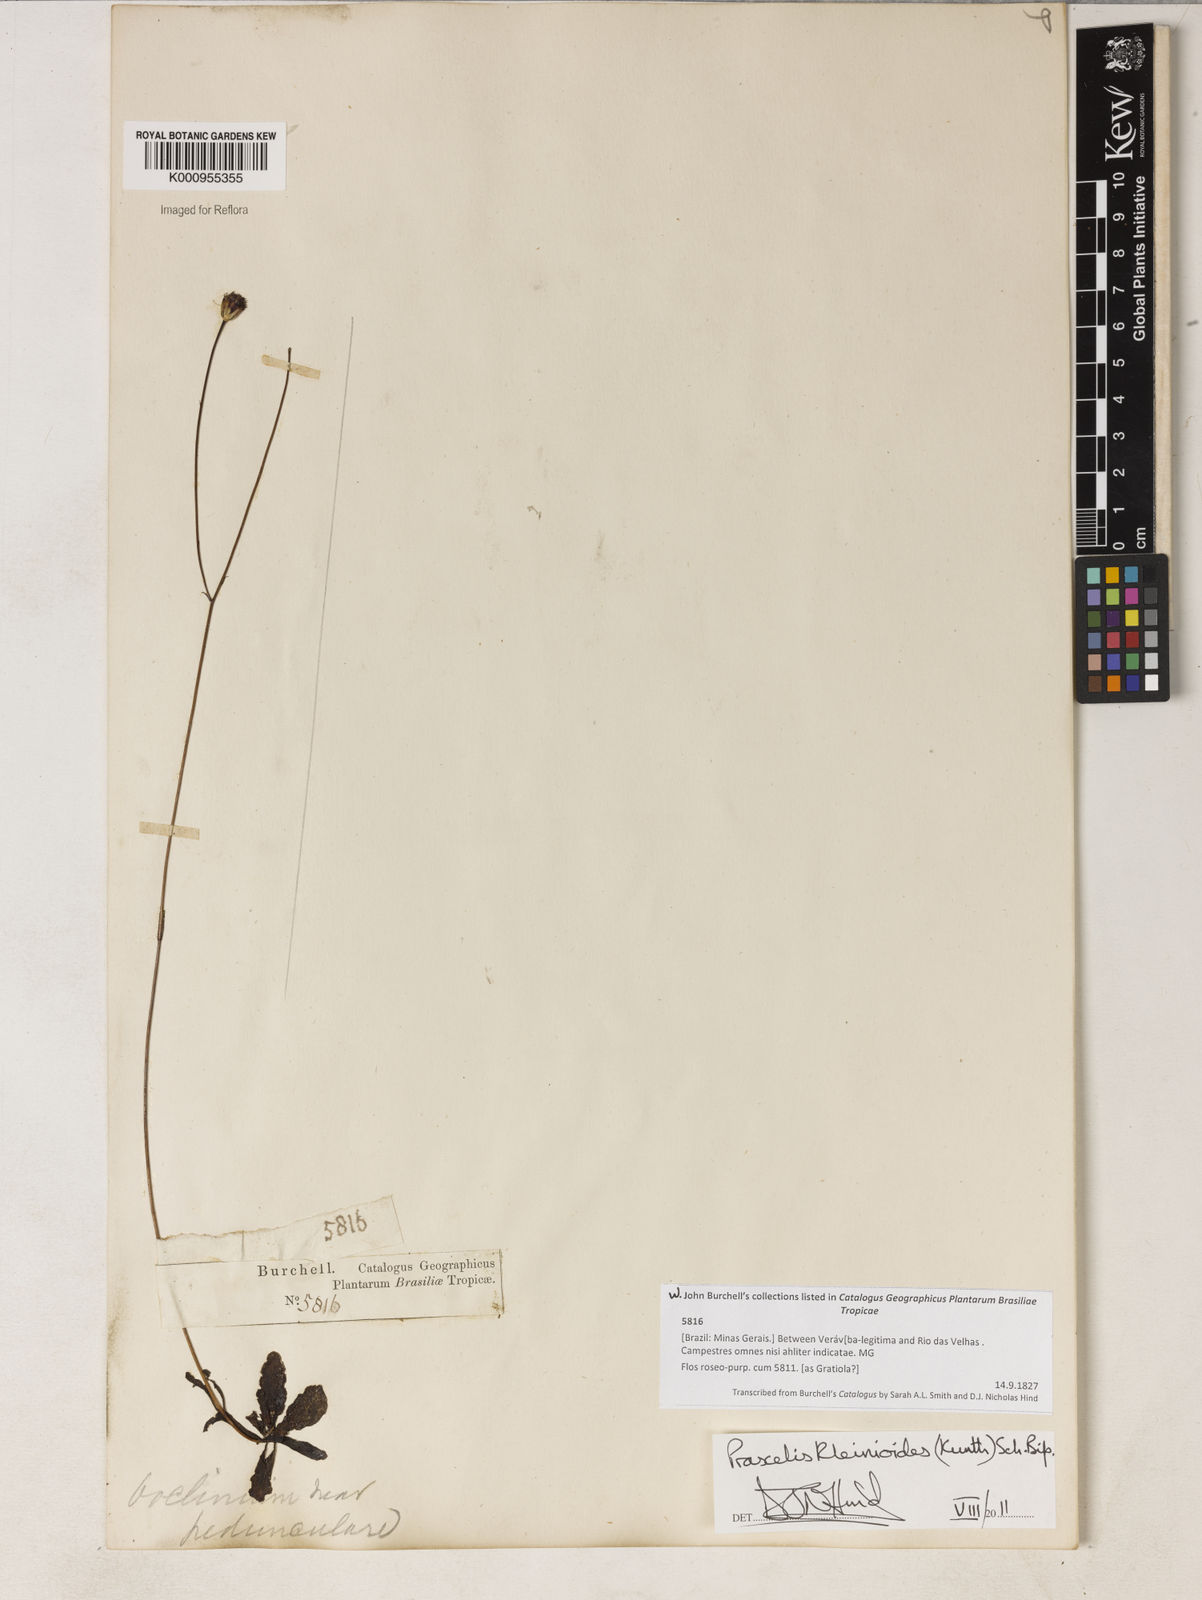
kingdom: Plantae
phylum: Tracheophyta
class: Magnoliopsida
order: Asterales
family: Asteraceae
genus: Praxelis
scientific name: Praxelis kleinioides
